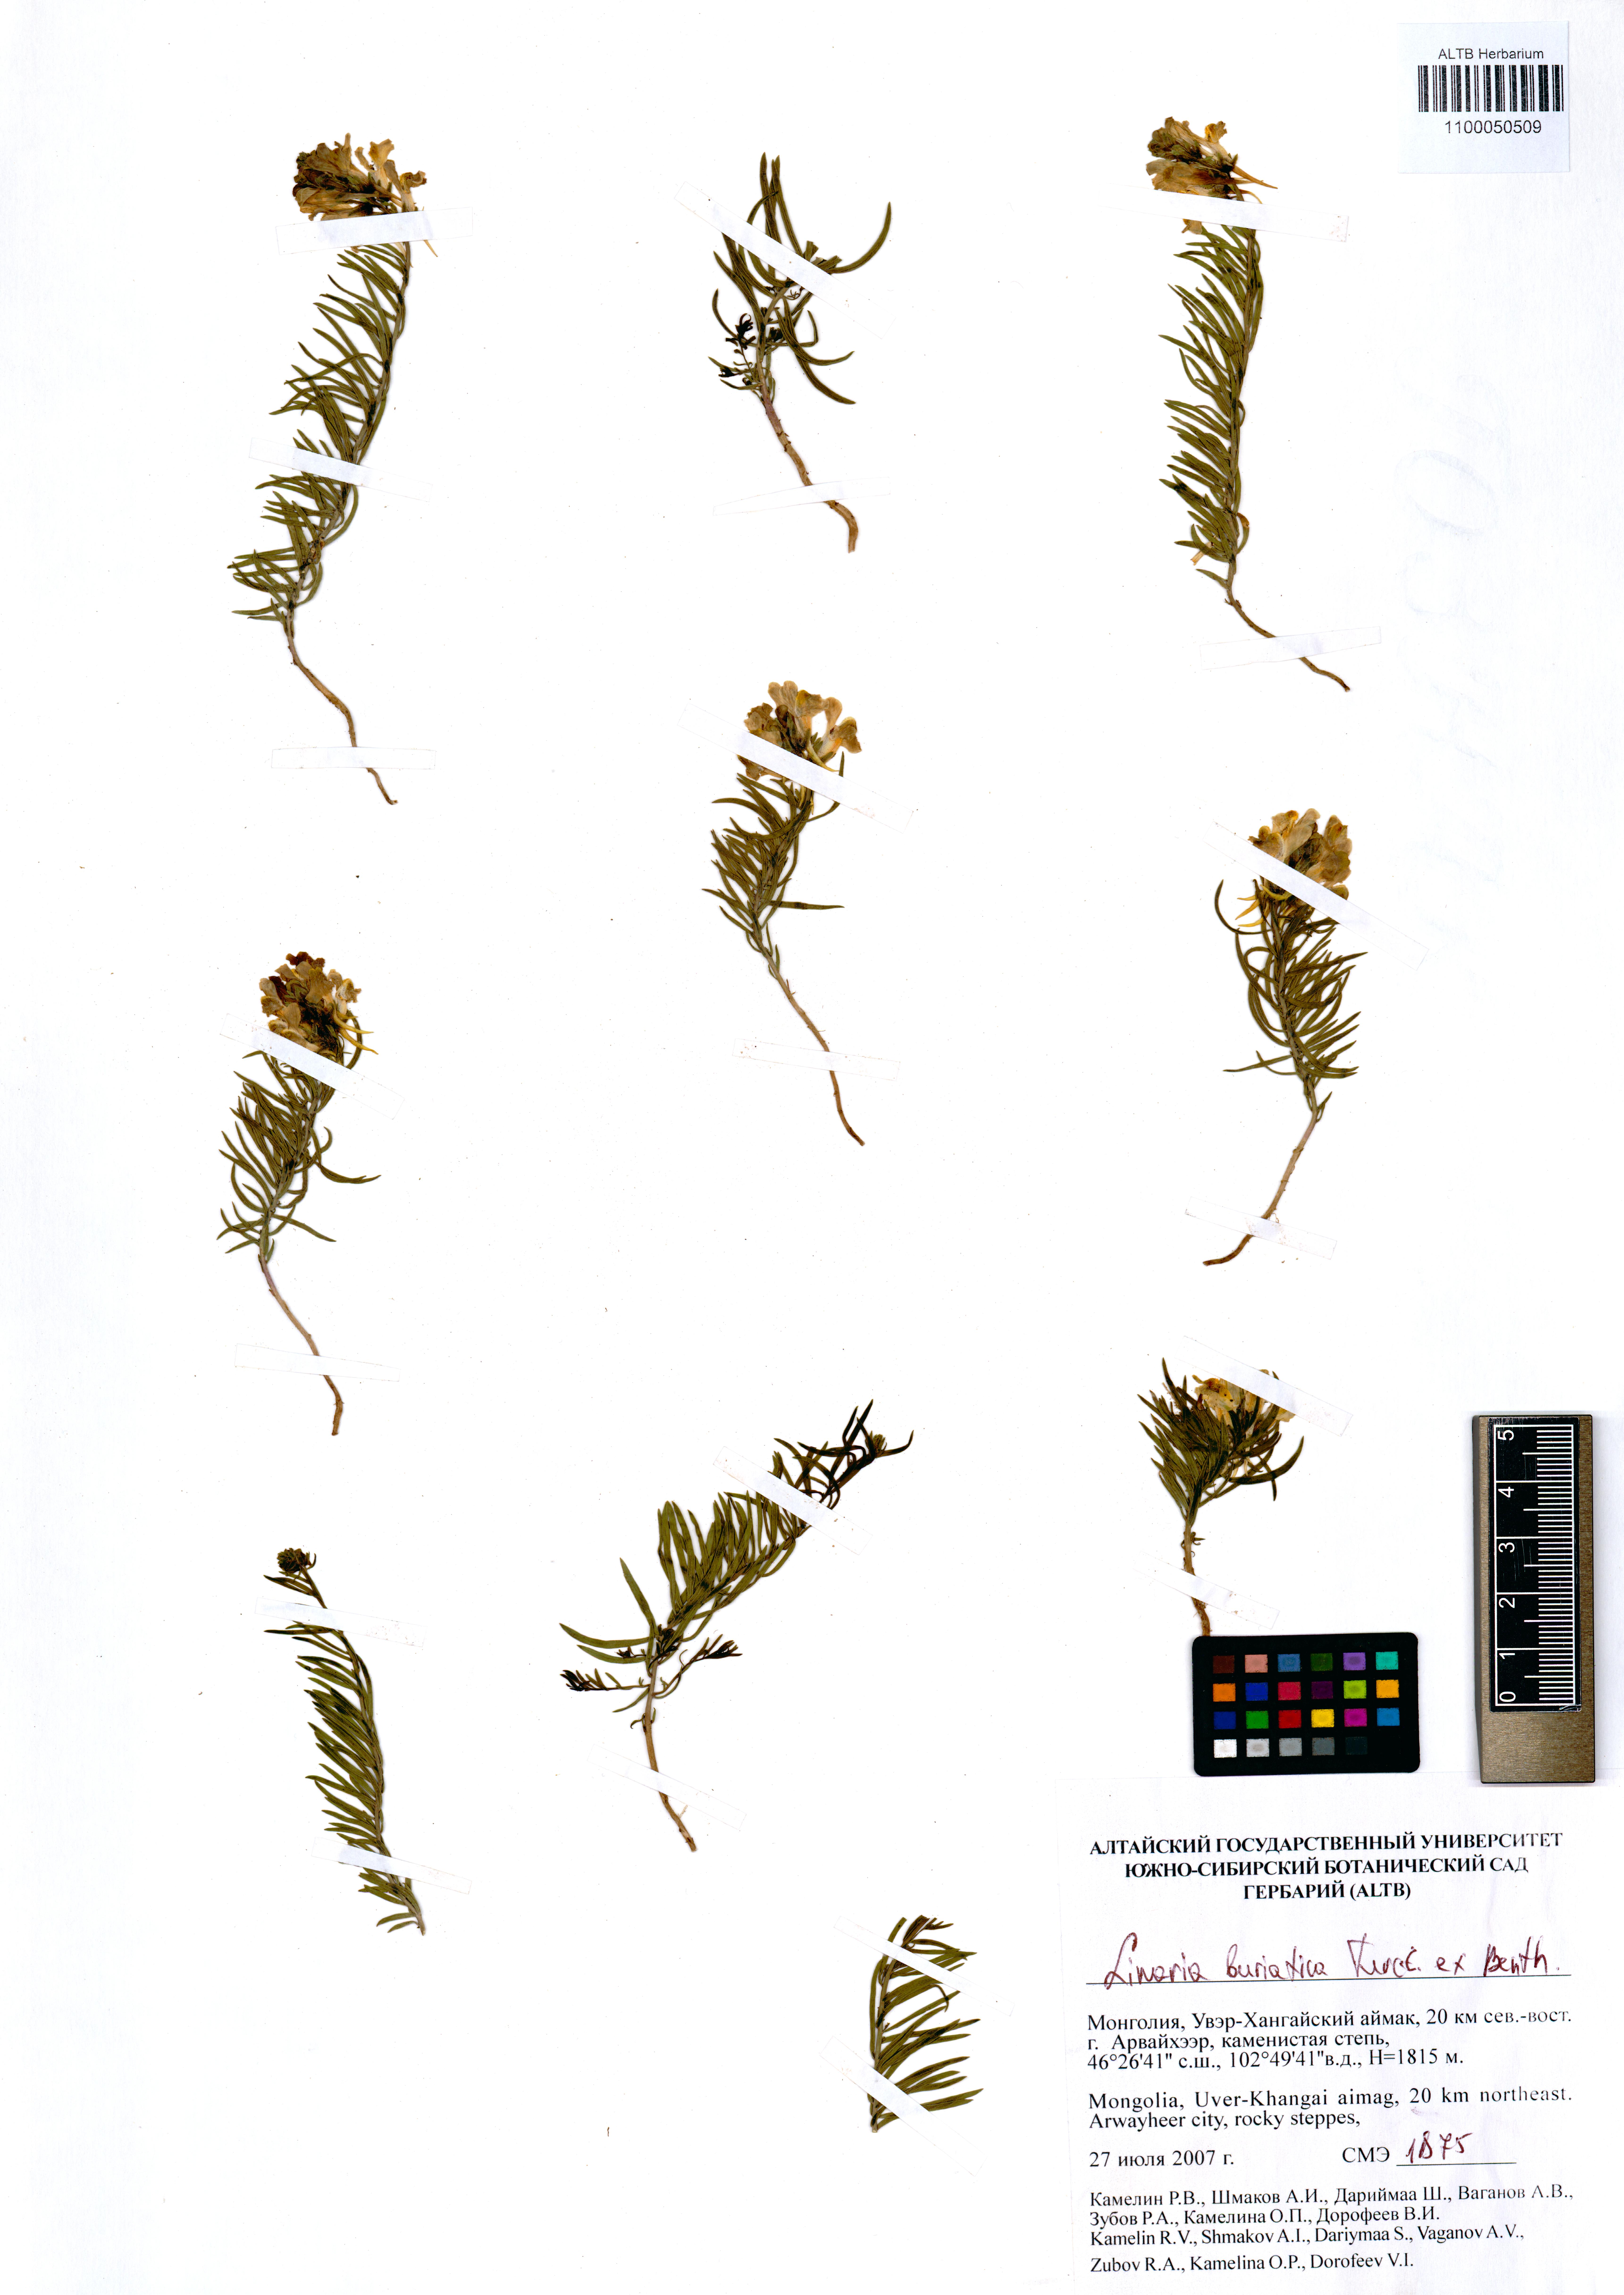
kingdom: Plantae
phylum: Tracheophyta
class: Magnoliopsida
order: Lamiales
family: Plantaginaceae
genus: Linaria
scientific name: Linaria buriatica
